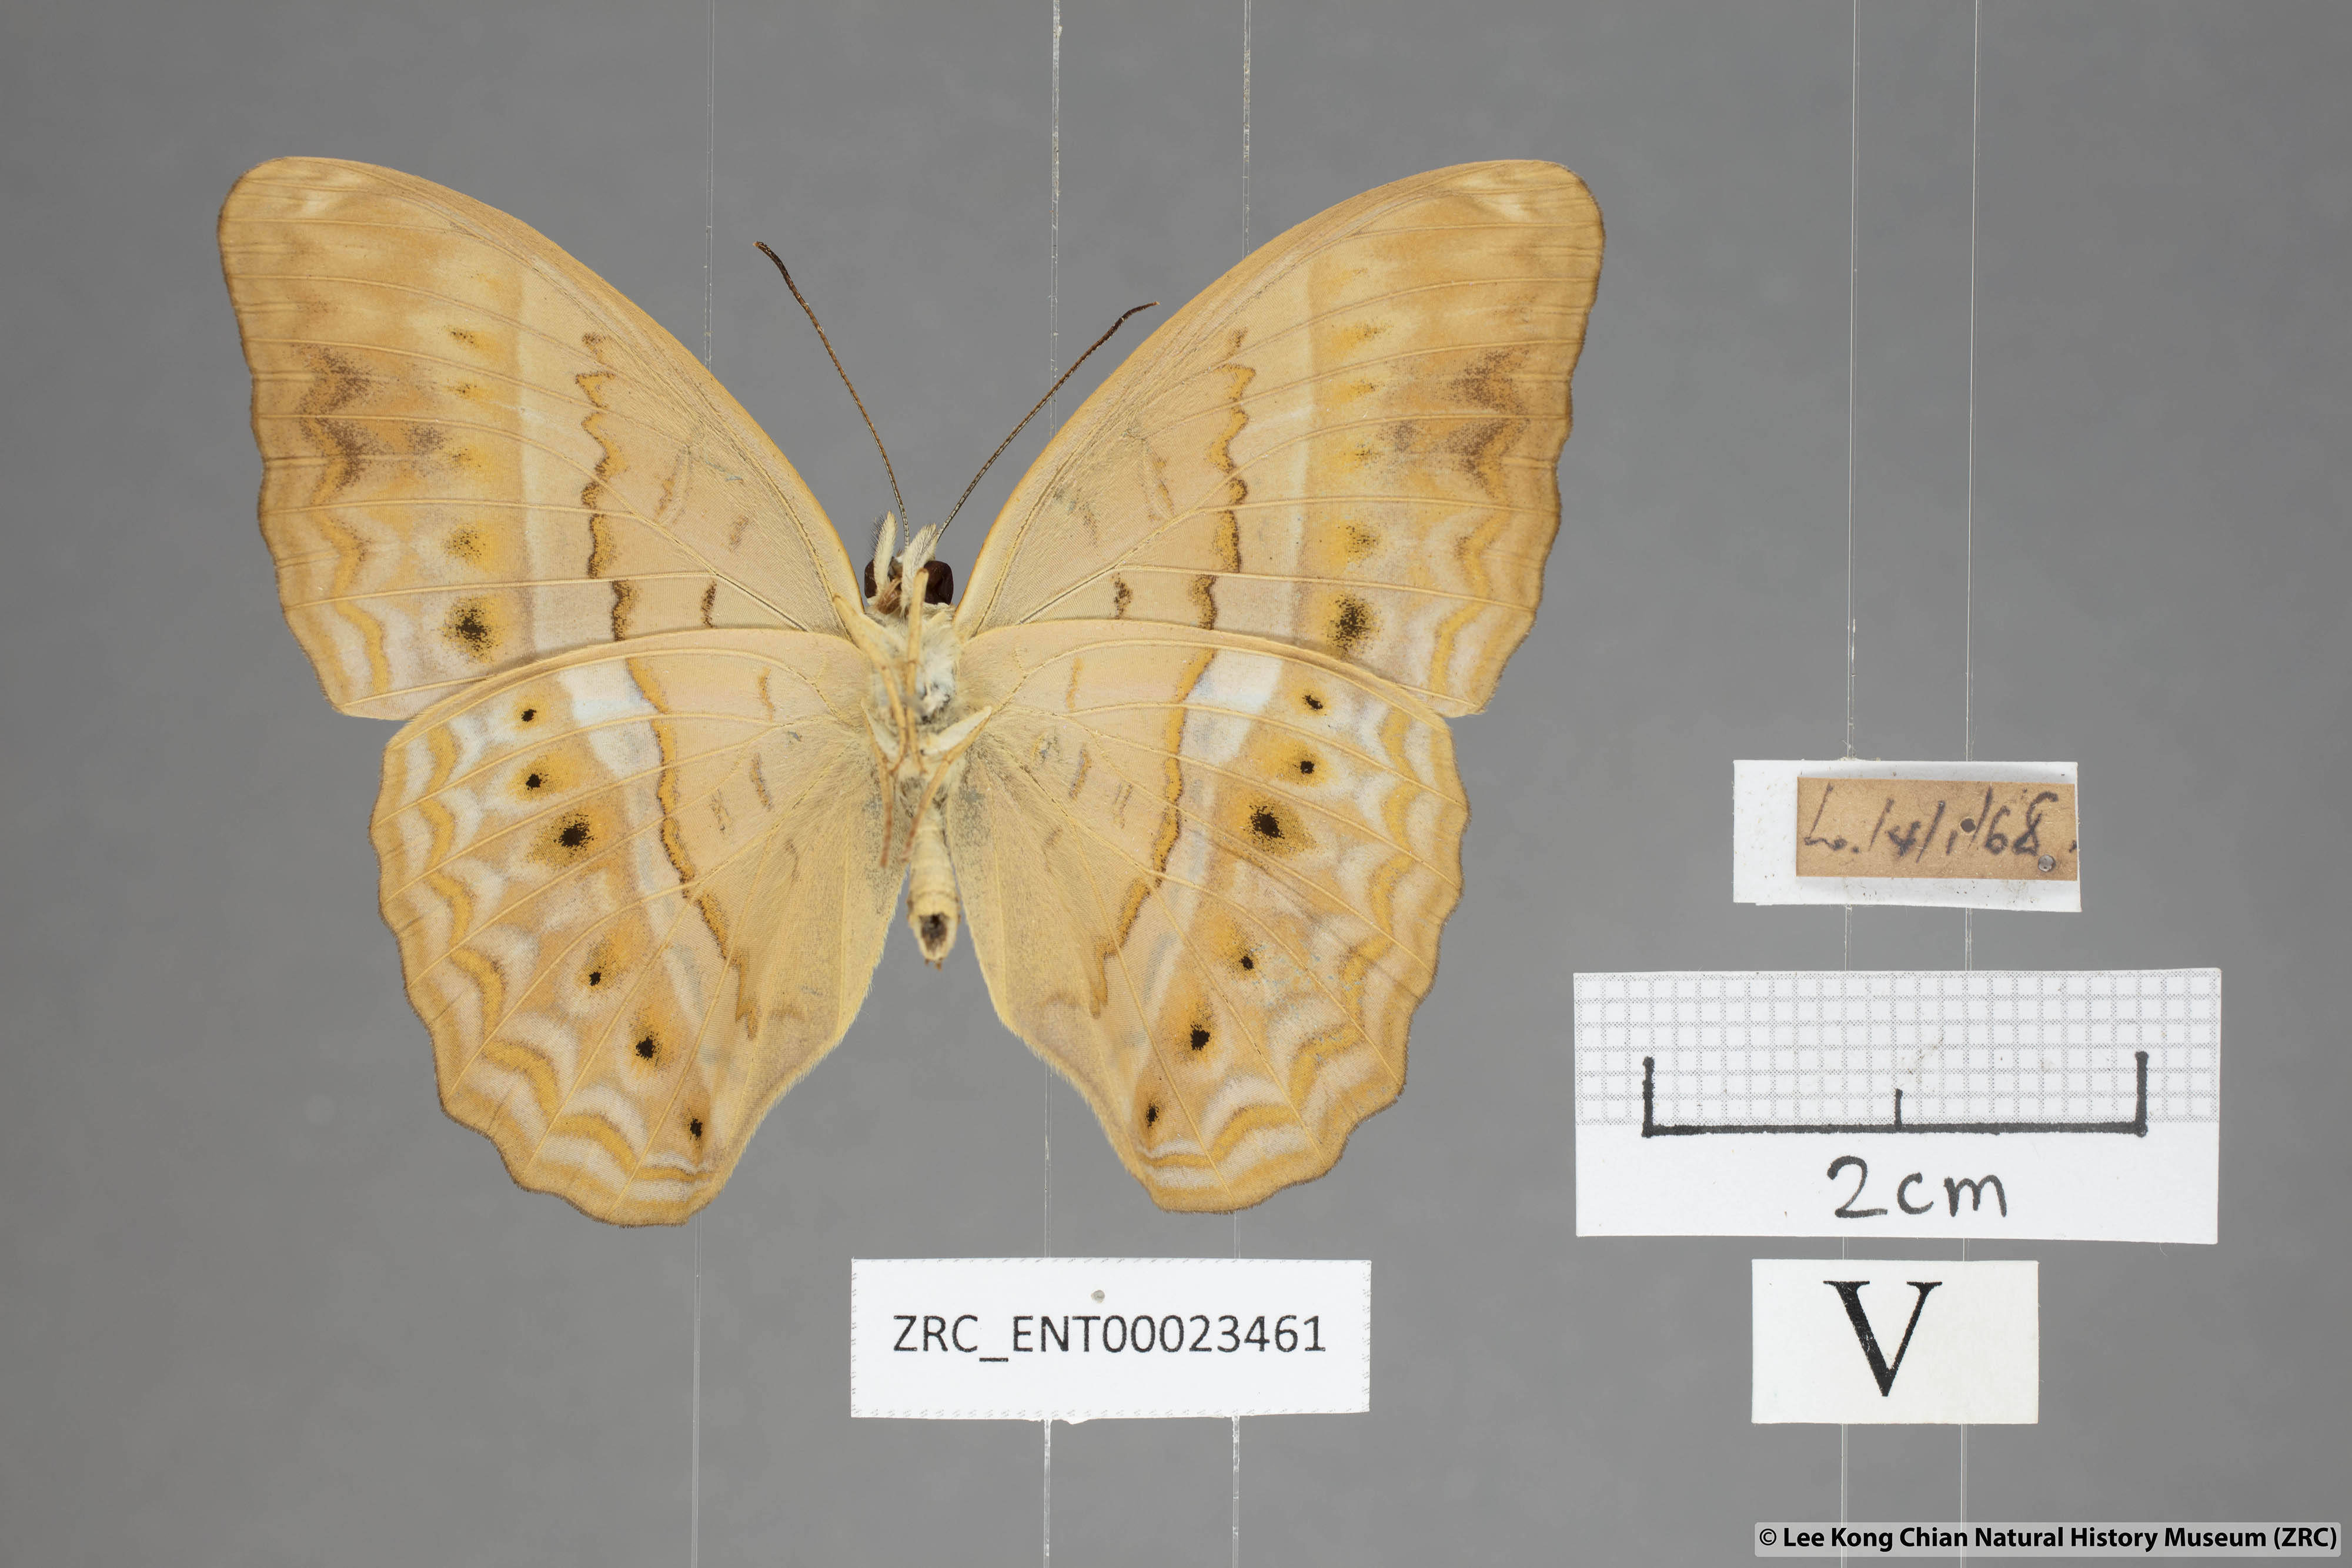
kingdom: Animalia
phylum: Arthropoda
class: Insecta
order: Lepidoptera
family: Nymphalidae
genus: Cirrochroa
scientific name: Cirrochroa surya
